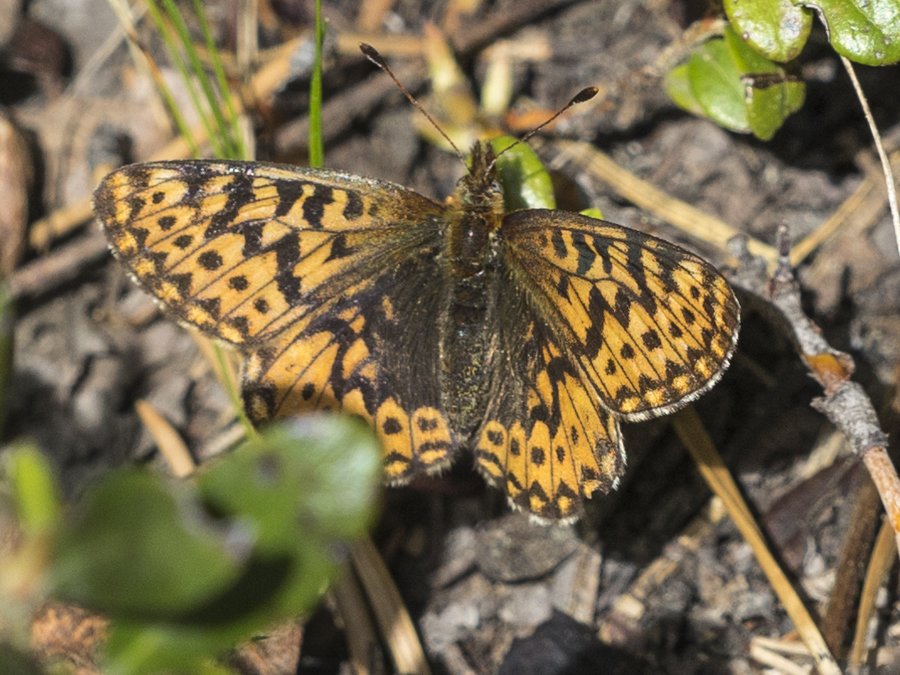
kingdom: Animalia
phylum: Arthropoda
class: Insecta
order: Lepidoptera
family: Nymphalidae
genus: Boloria
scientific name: Boloria freija
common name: Freija Fritillary
